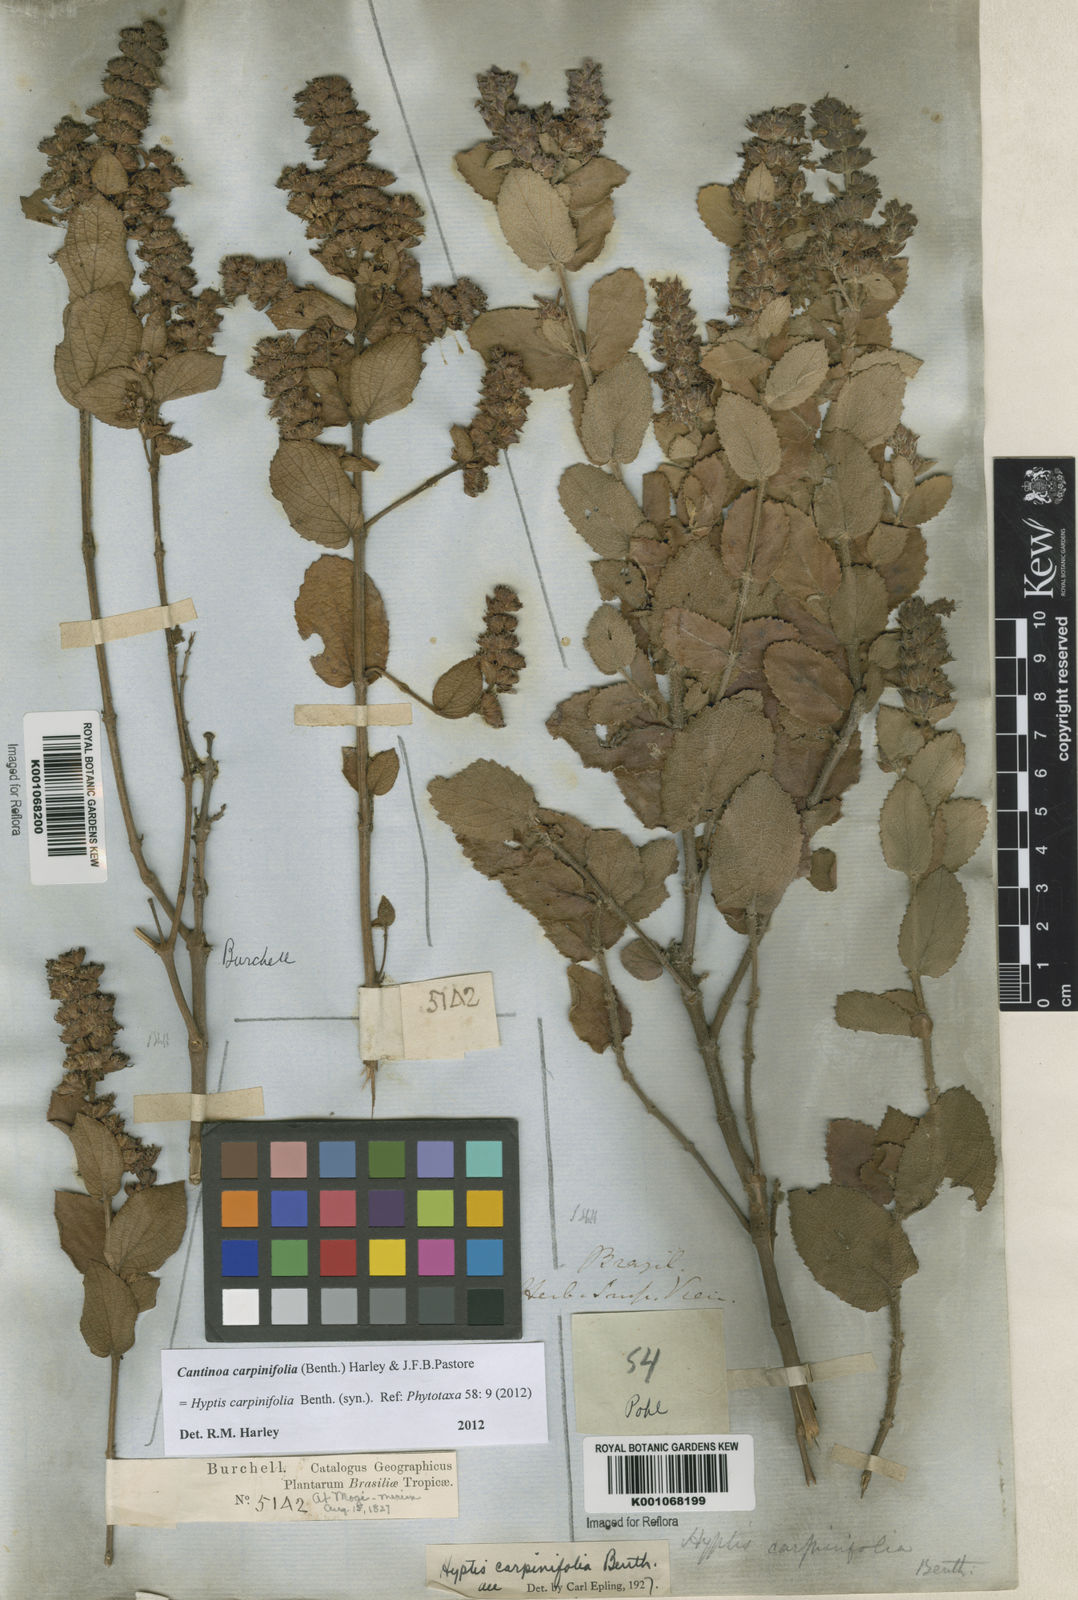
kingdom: Plantae
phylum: Tracheophyta
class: Magnoliopsida
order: Lamiales
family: Lamiaceae
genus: Cantinoa
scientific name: Cantinoa carpinifolia
